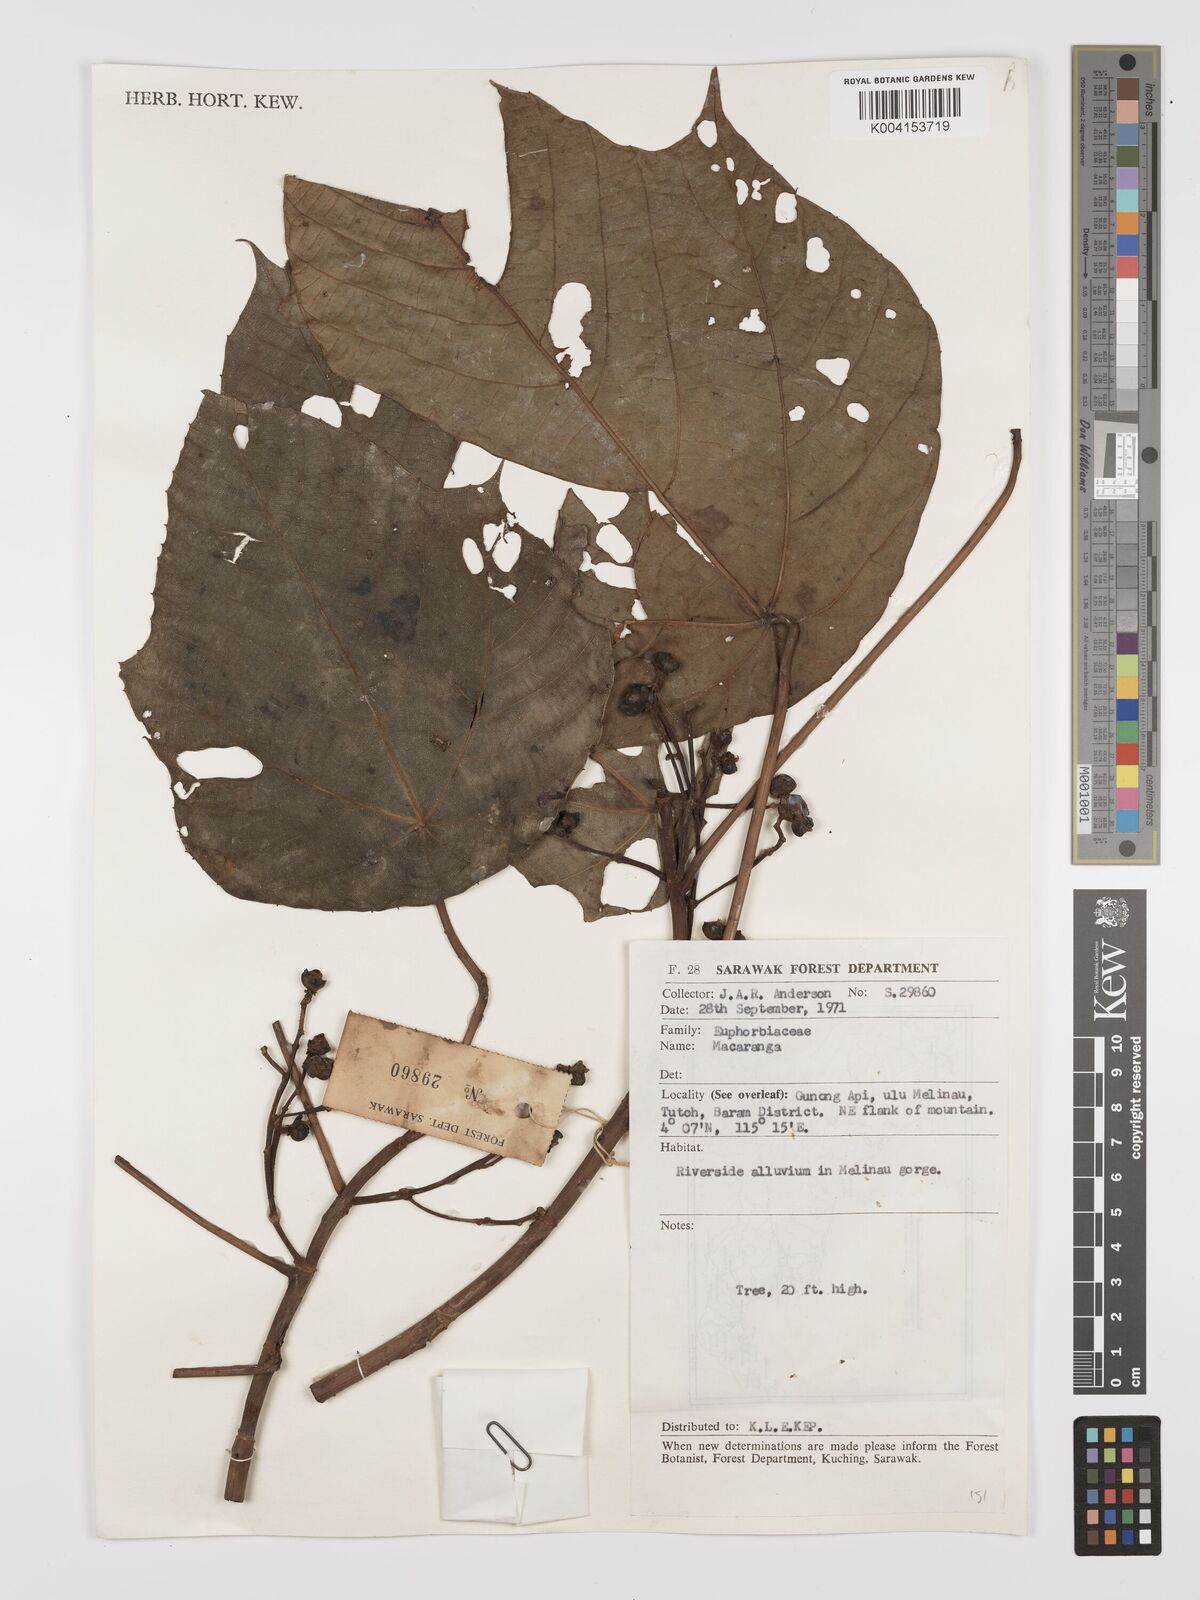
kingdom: Plantae
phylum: Tracheophyta
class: Magnoliopsida
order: Malpighiales
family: Euphorbiaceae
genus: Macaranga
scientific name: Macaranga triloba
